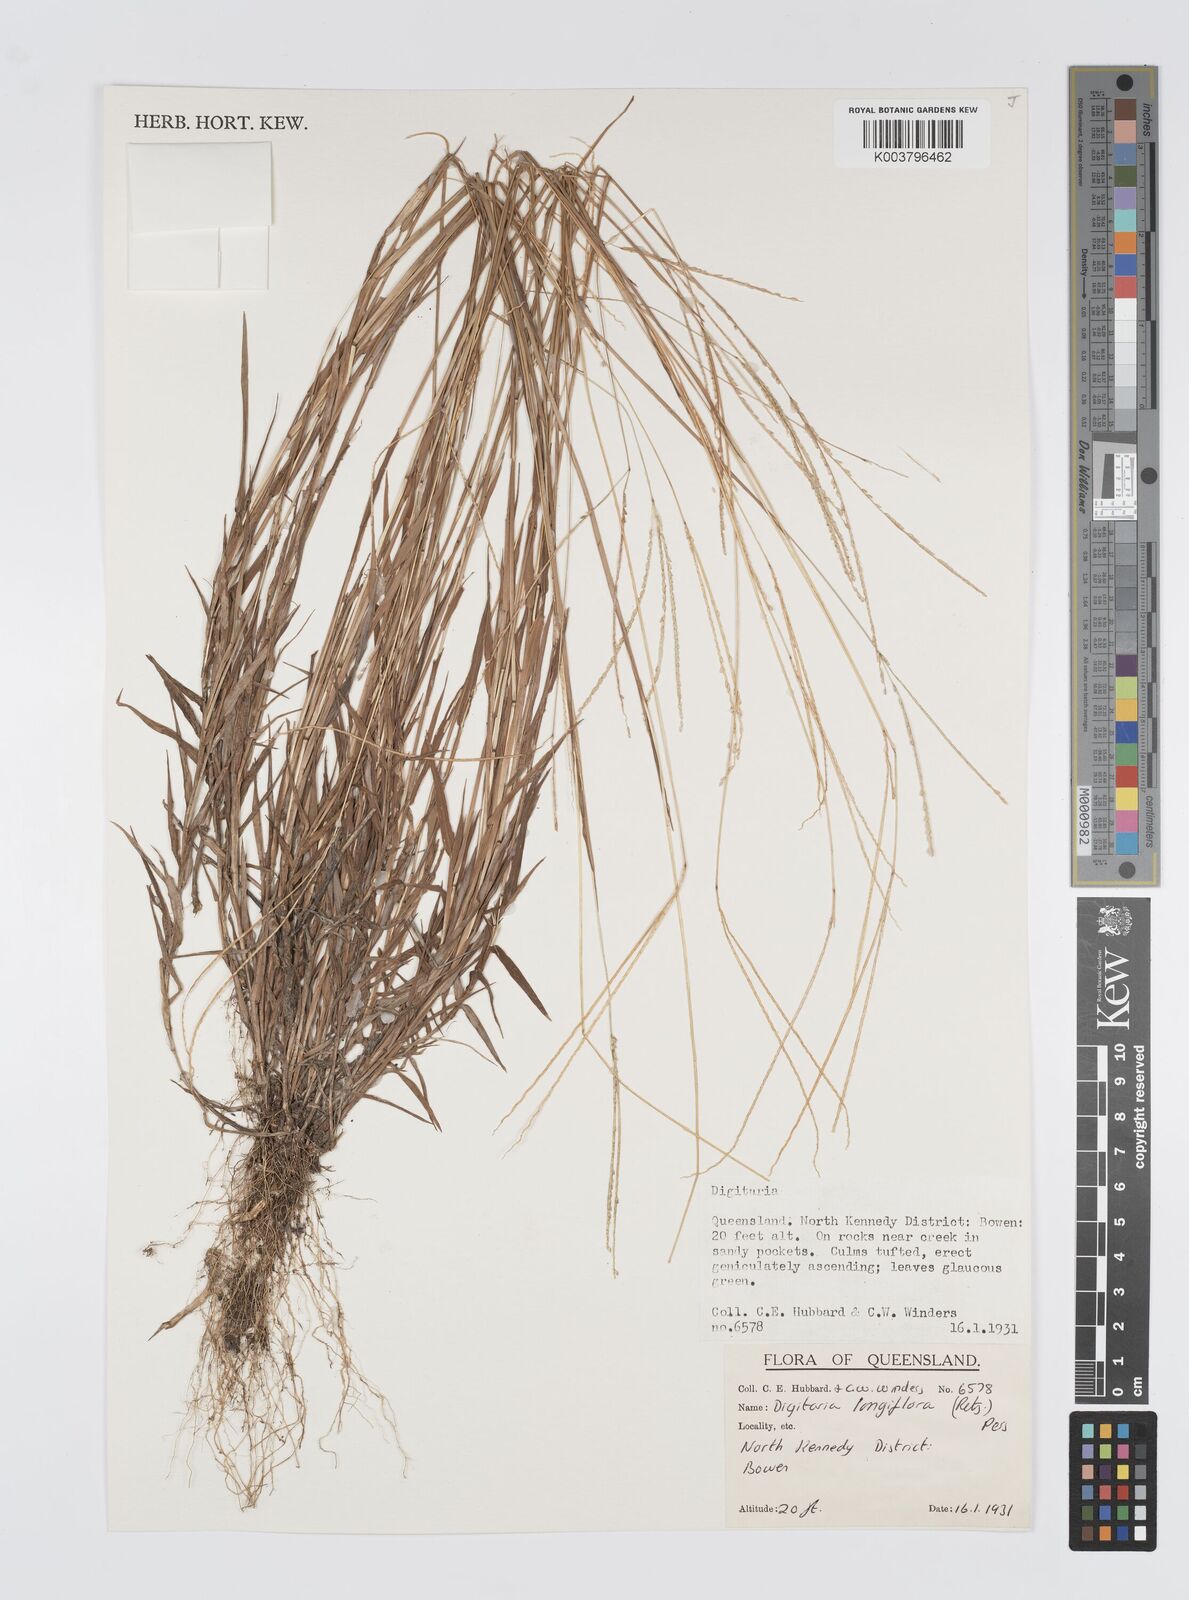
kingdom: Plantae
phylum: Tracheophyta
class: Liliopsida
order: Poales
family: Poaceae
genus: Digitaria
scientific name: Digitaria longiflora
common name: Wire crabgrass
